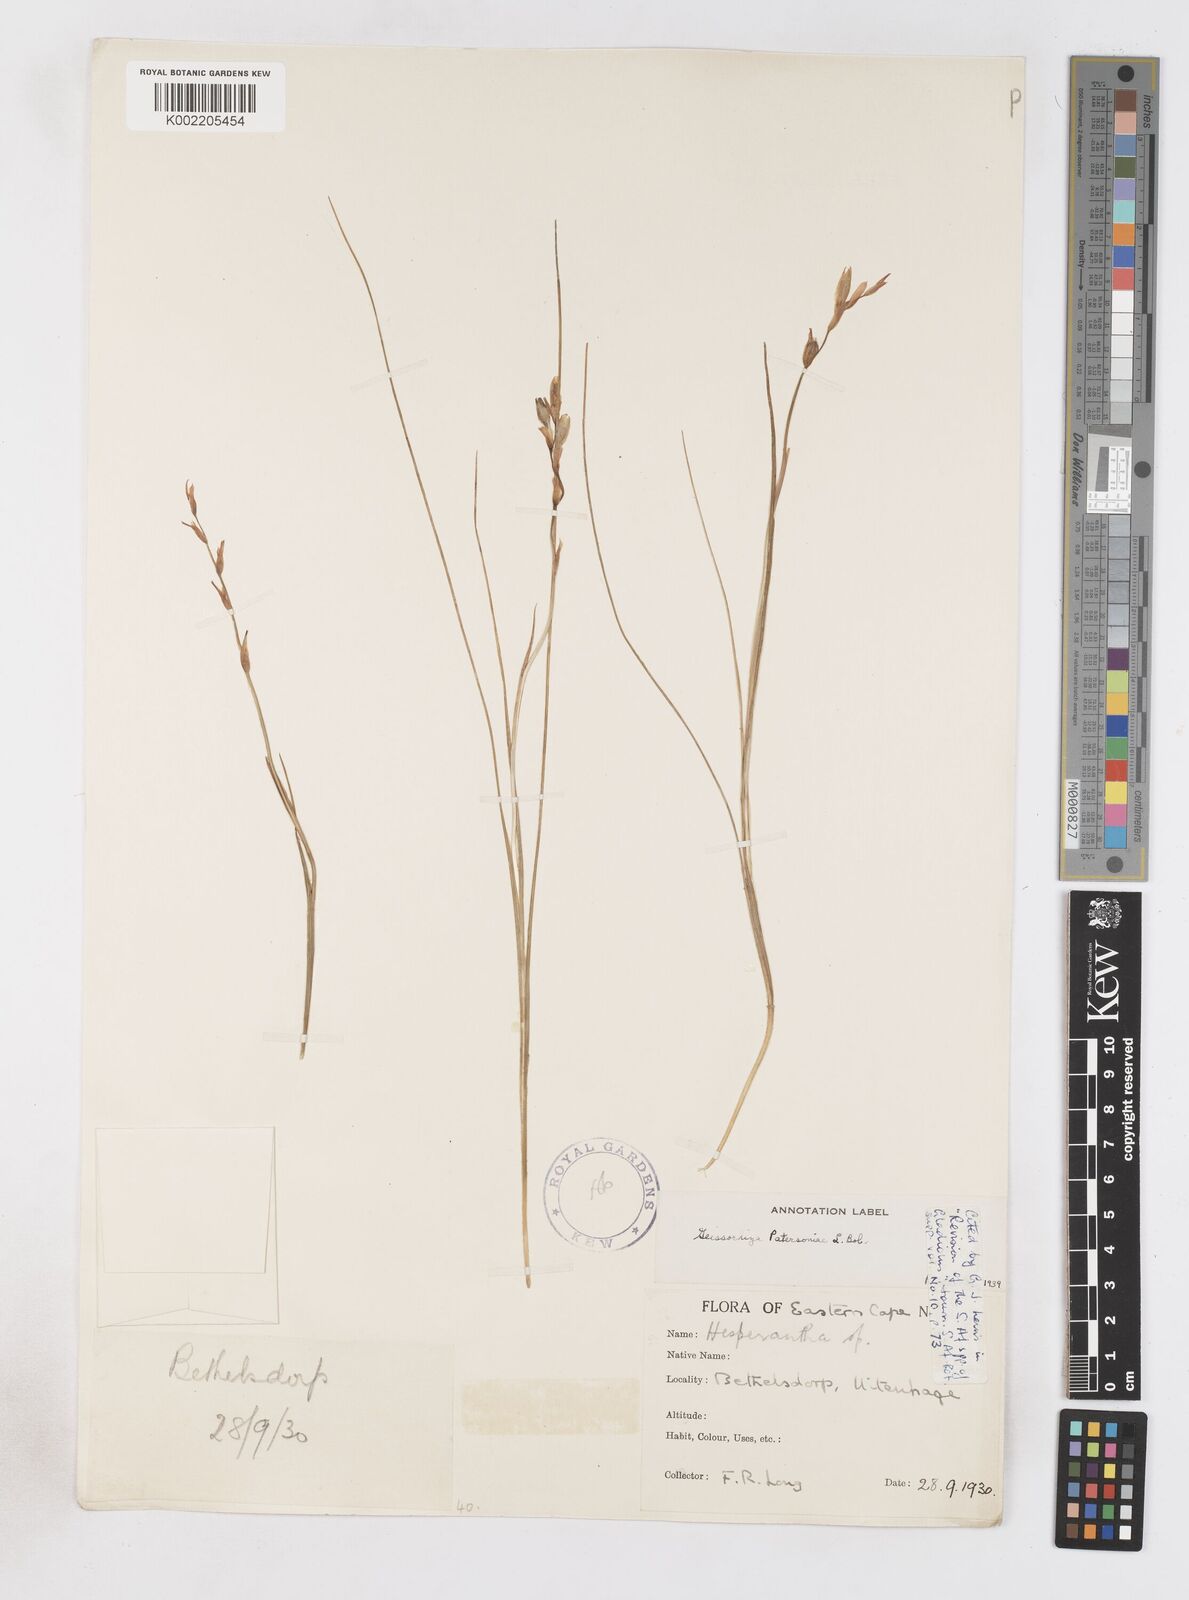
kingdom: Plantae
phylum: Tracheophyta
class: Liliopsida
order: Asparagales
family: Iridaceae
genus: Gladiolus
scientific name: Gladiolus stellatus
